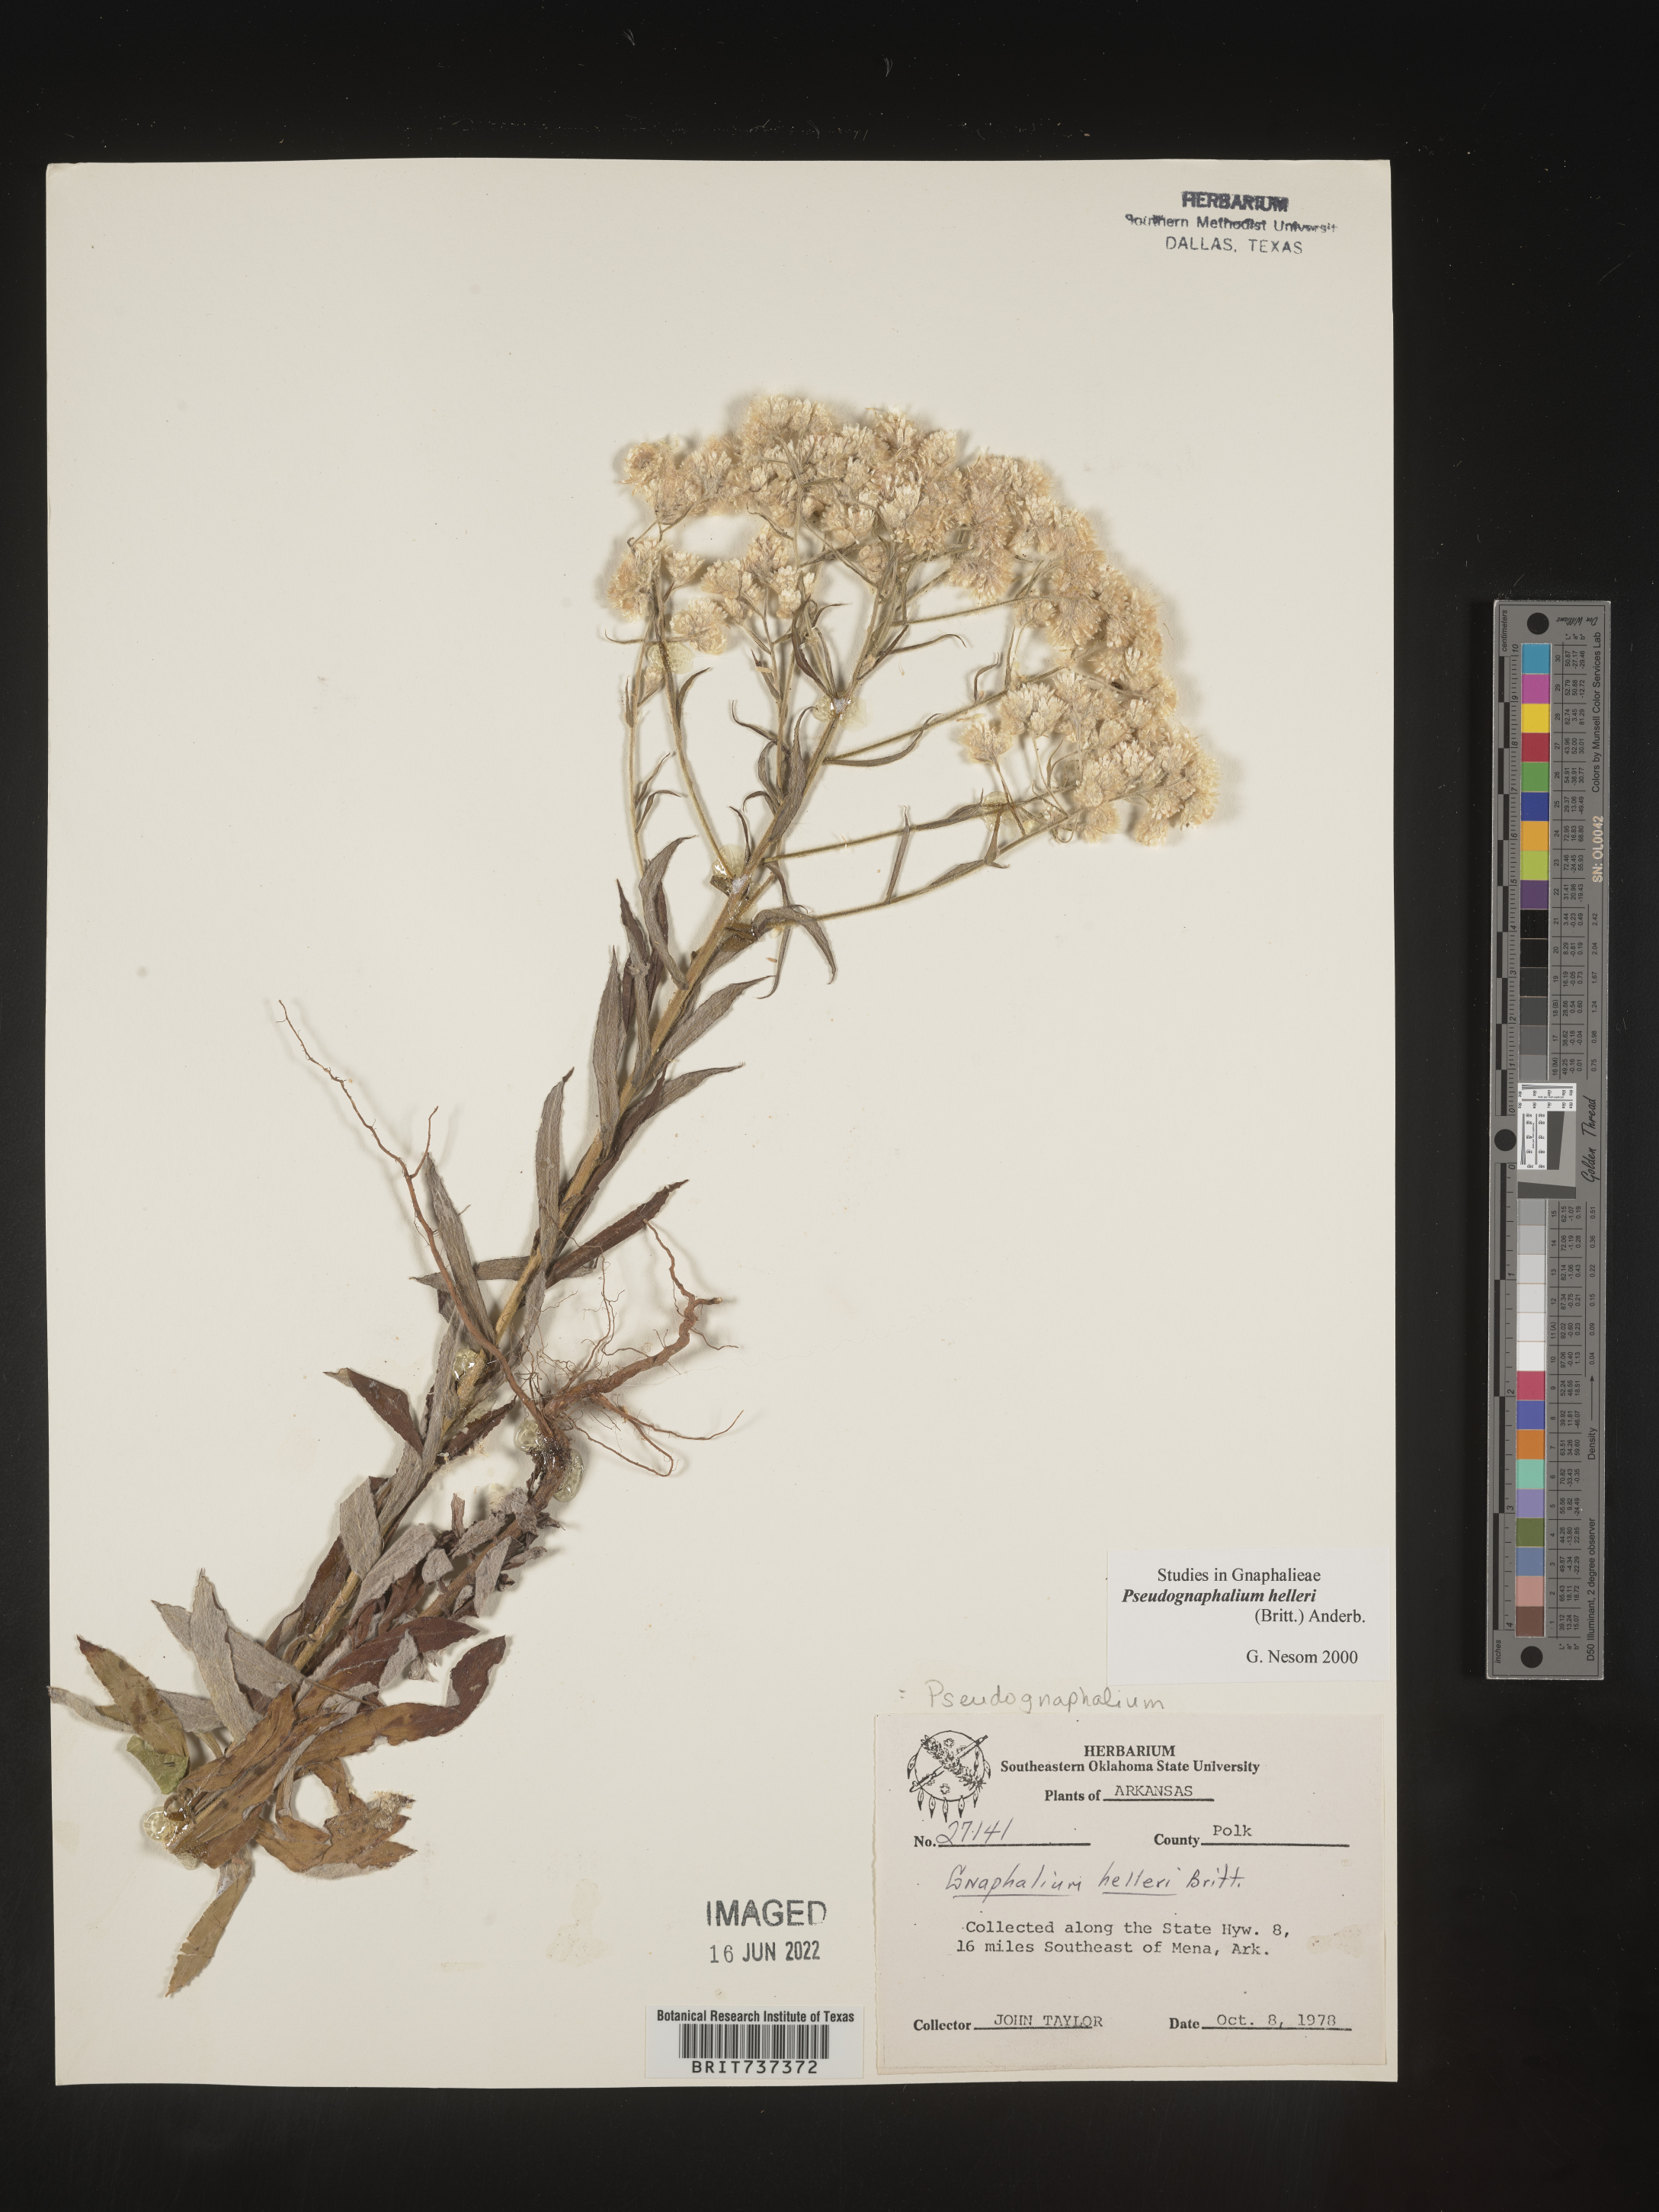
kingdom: Plantae
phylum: Tracheophyta
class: Magnoliopsida
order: Asterales
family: Asteraceae
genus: Pseudognaphalium
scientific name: Pseudognaphalium helleri
